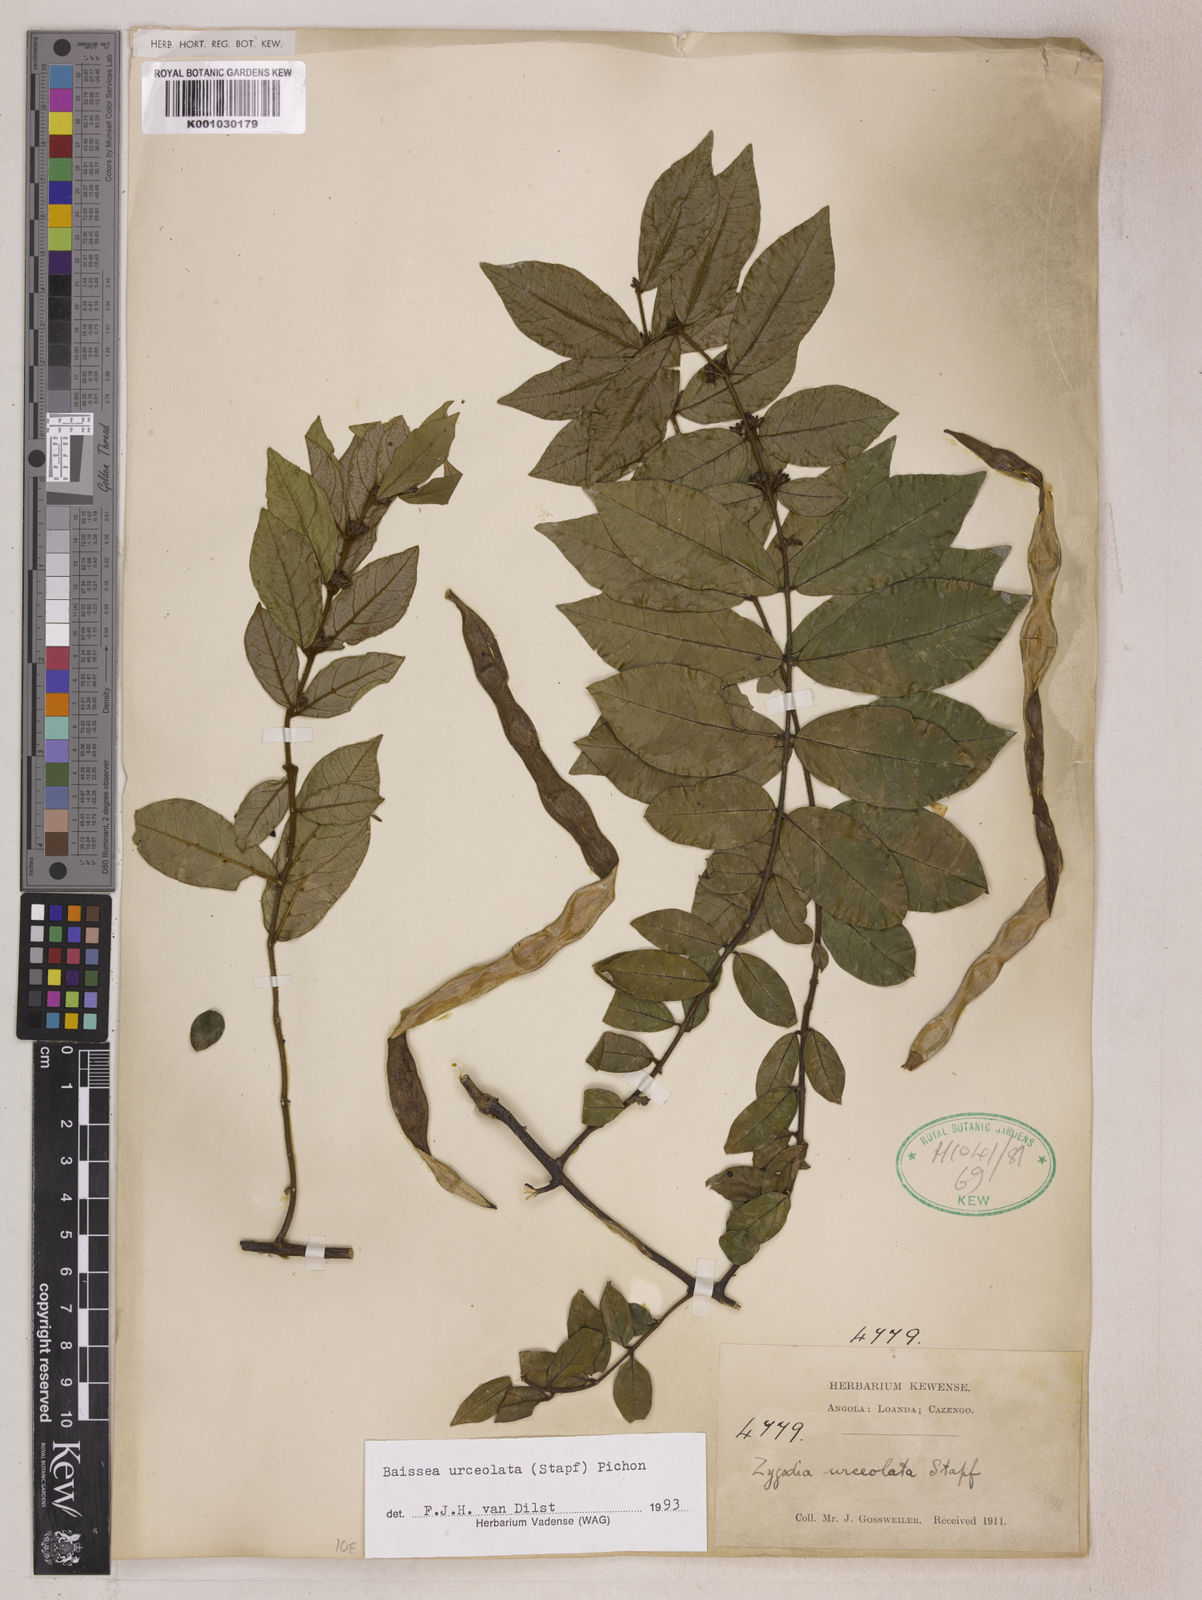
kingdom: Plantae
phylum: Tracheophyta
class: Magnoliopsida
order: Gentianales
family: Apocynaceae
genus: Baissea
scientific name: Baissea myrtifolia
